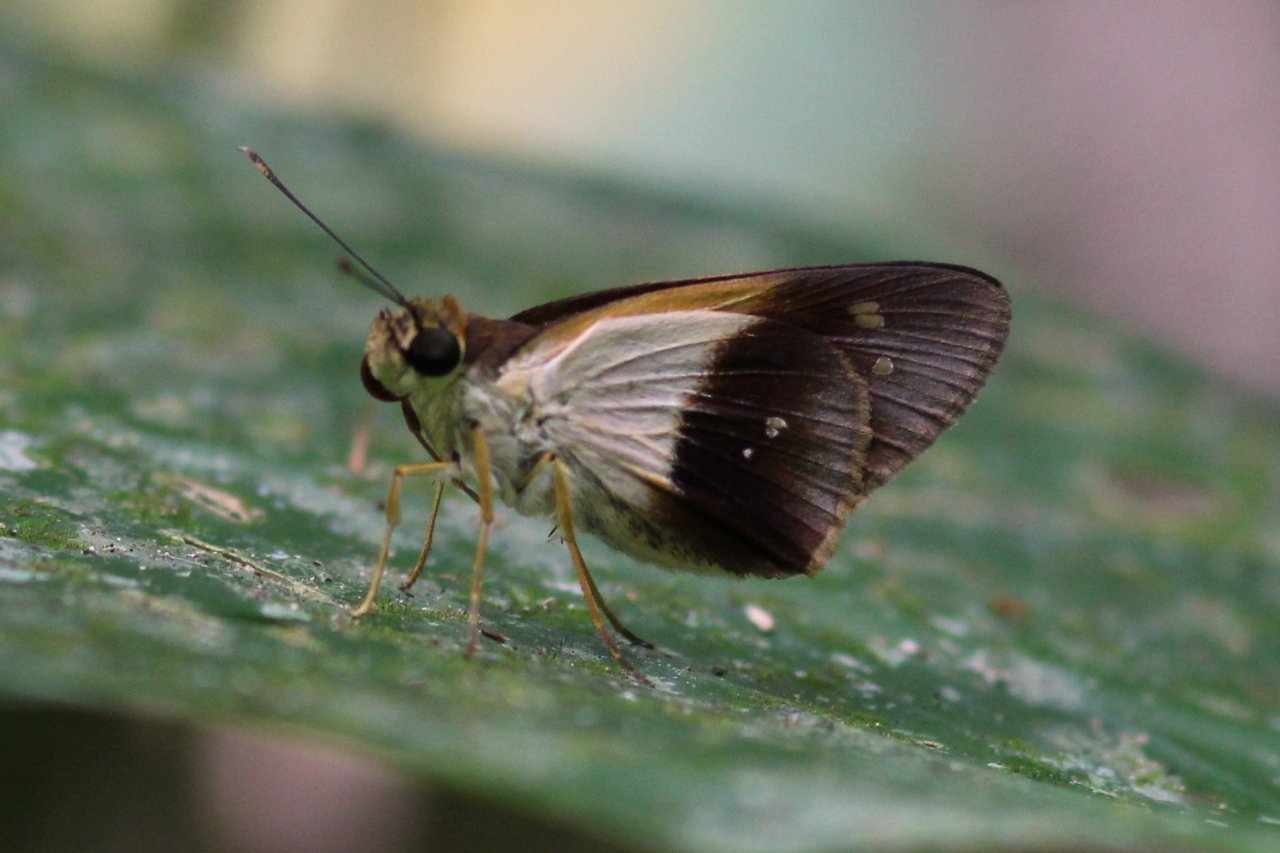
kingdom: Animalia
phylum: Arthropoda
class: Insecta
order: Lepidoptera
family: Hesperiidae
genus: Saliana
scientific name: Saliana morsa
